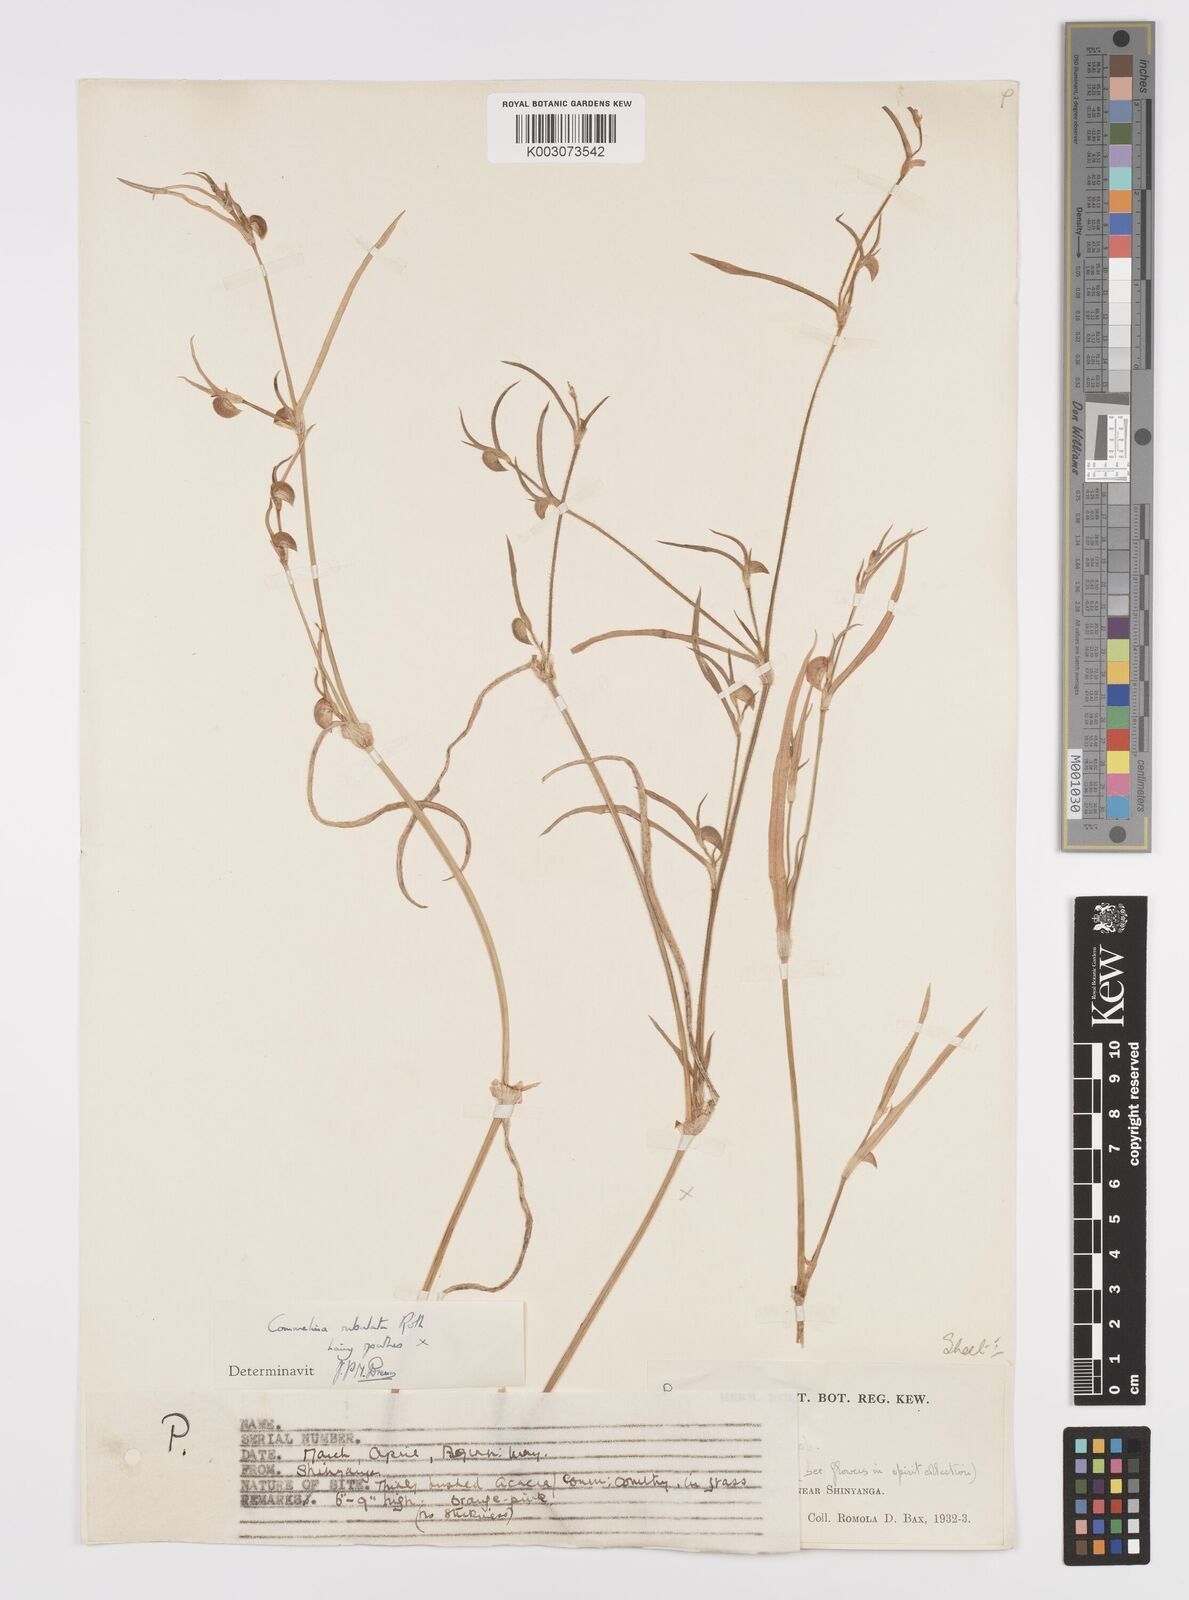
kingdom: Plantae
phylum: Tracheophyta
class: Liliopsida
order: Commelinales
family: Commelinaceae
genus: Commelina
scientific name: Commelina subulata
